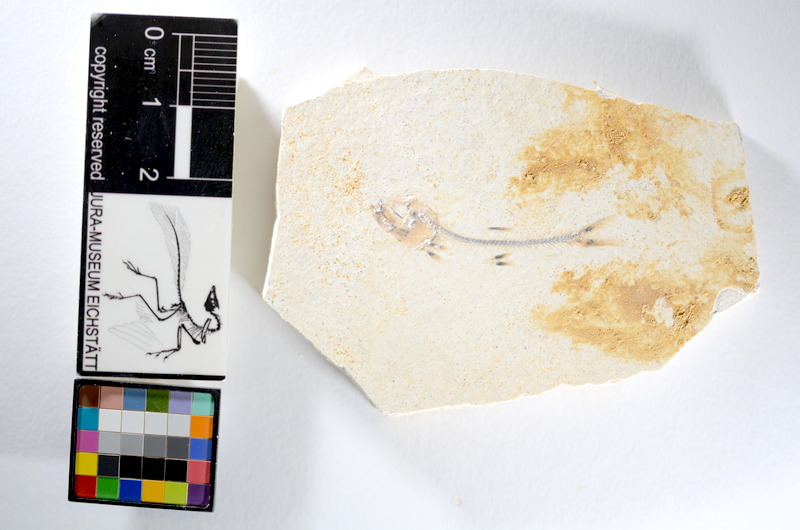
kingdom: Animalia
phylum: Chordata
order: Salmoniformes
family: Orthogonikleithridae
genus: Orthogonikleithrus
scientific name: Orthogonikleithrus hoelli
